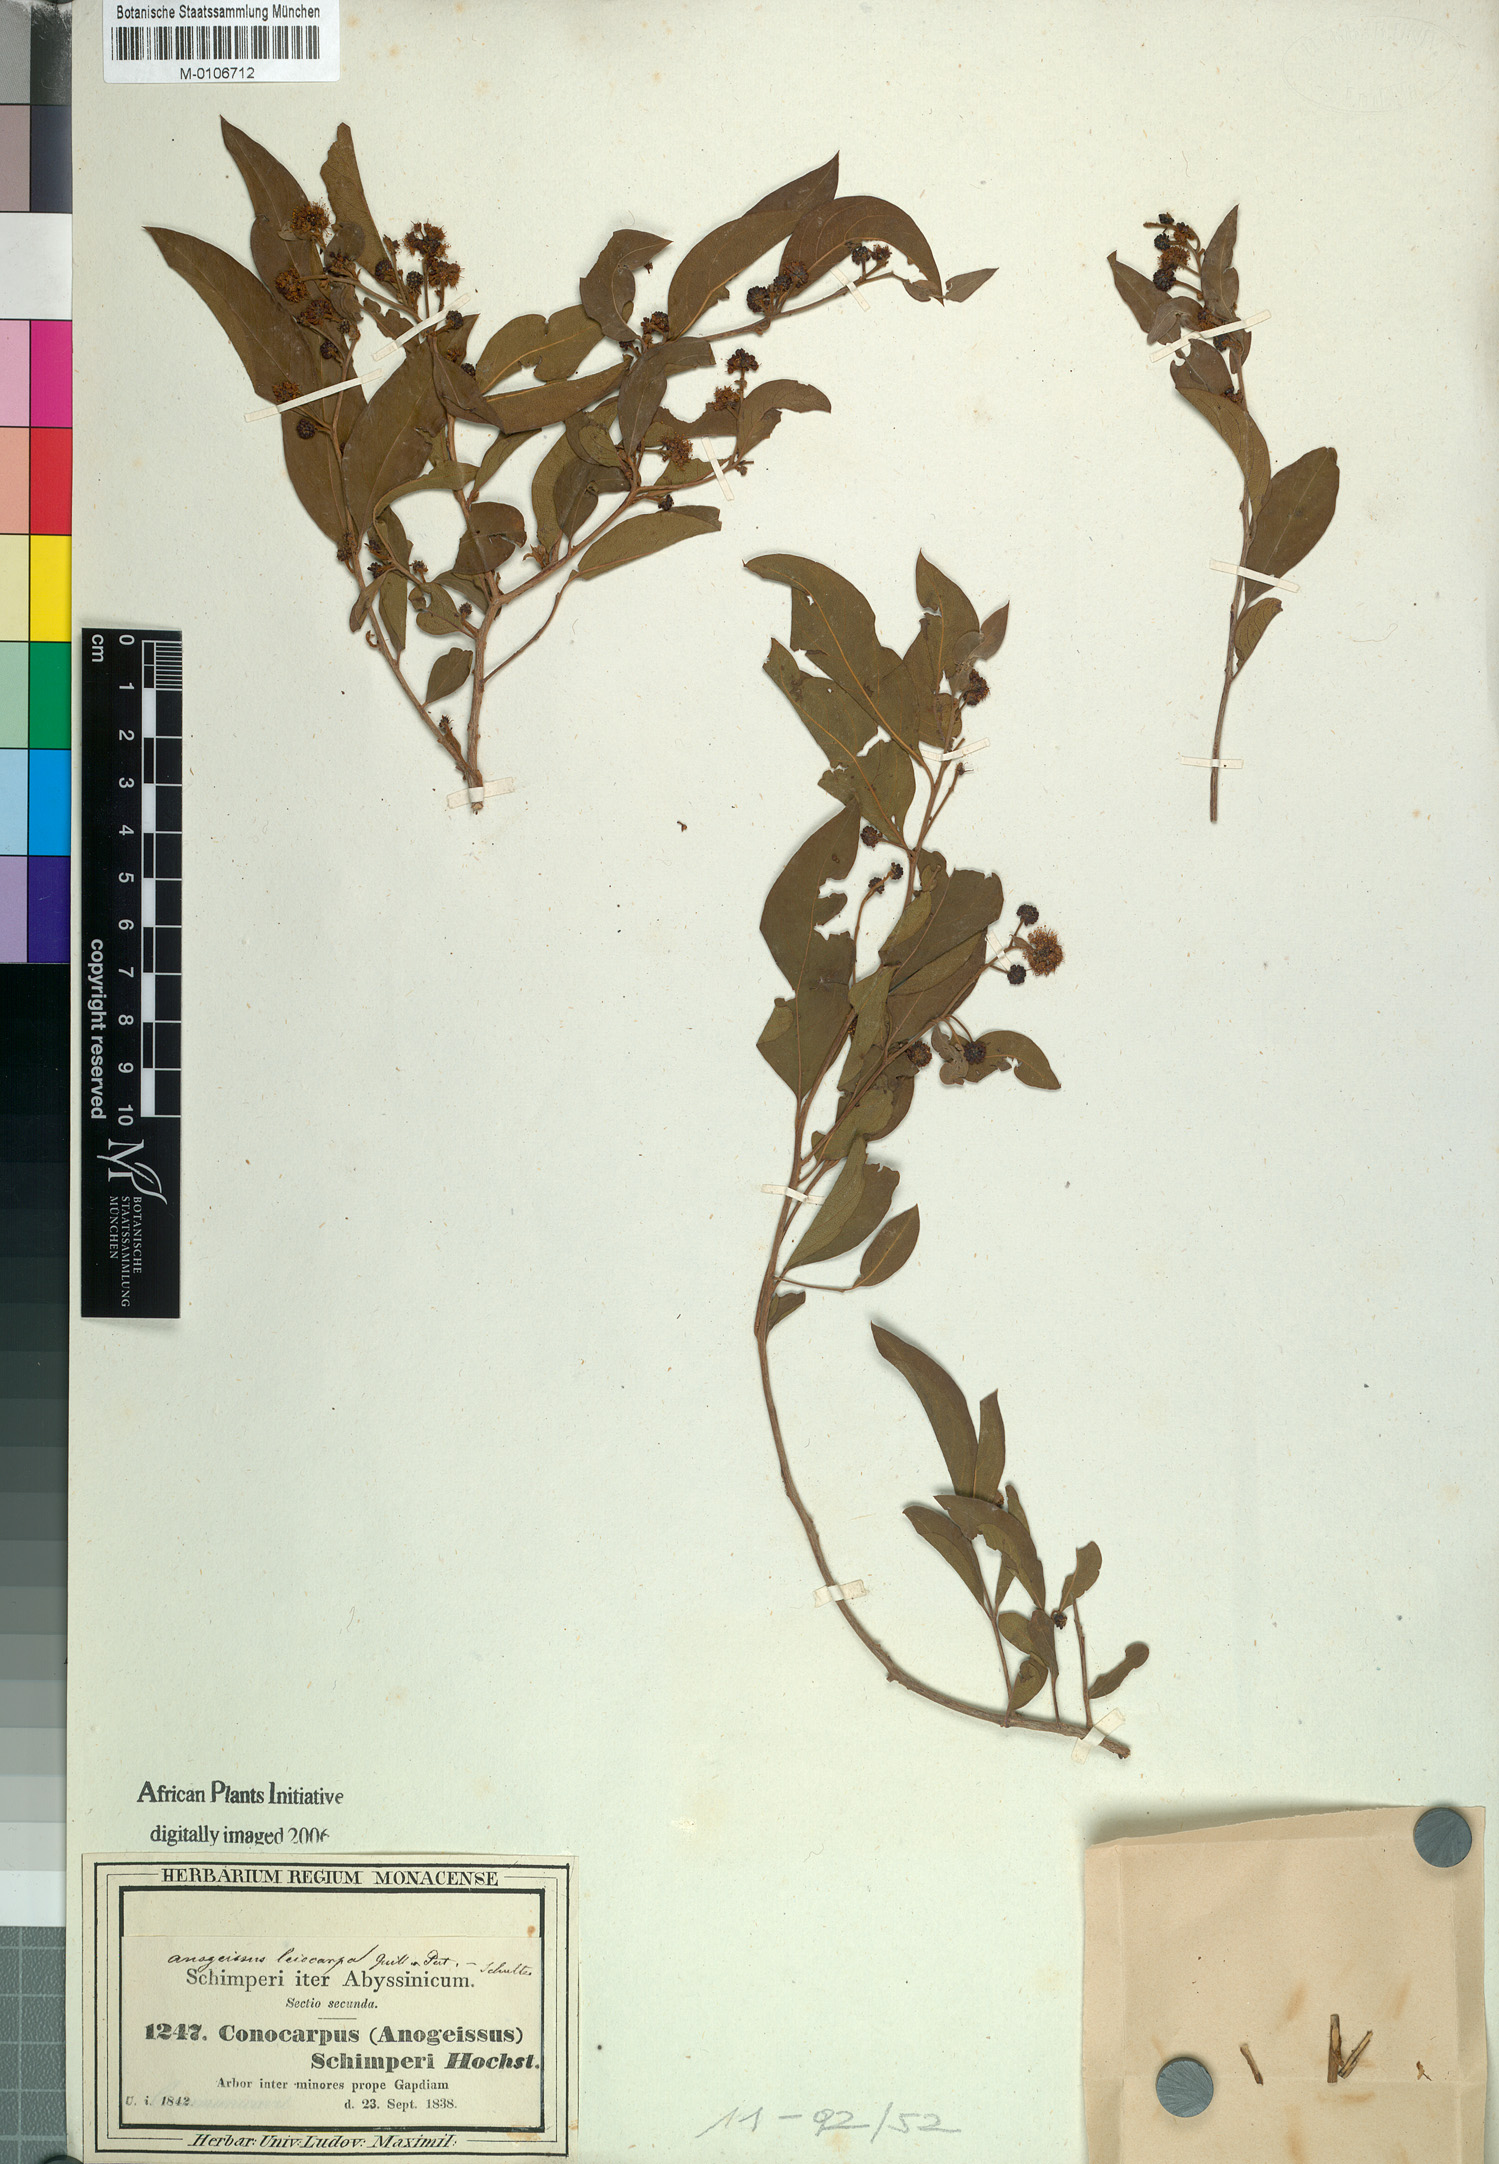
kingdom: Plantae
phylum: Tracheophyta
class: Magnoliopsida
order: Myrtales
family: Combretaceae
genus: Terminalia
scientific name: Terminalia leiocarpa
